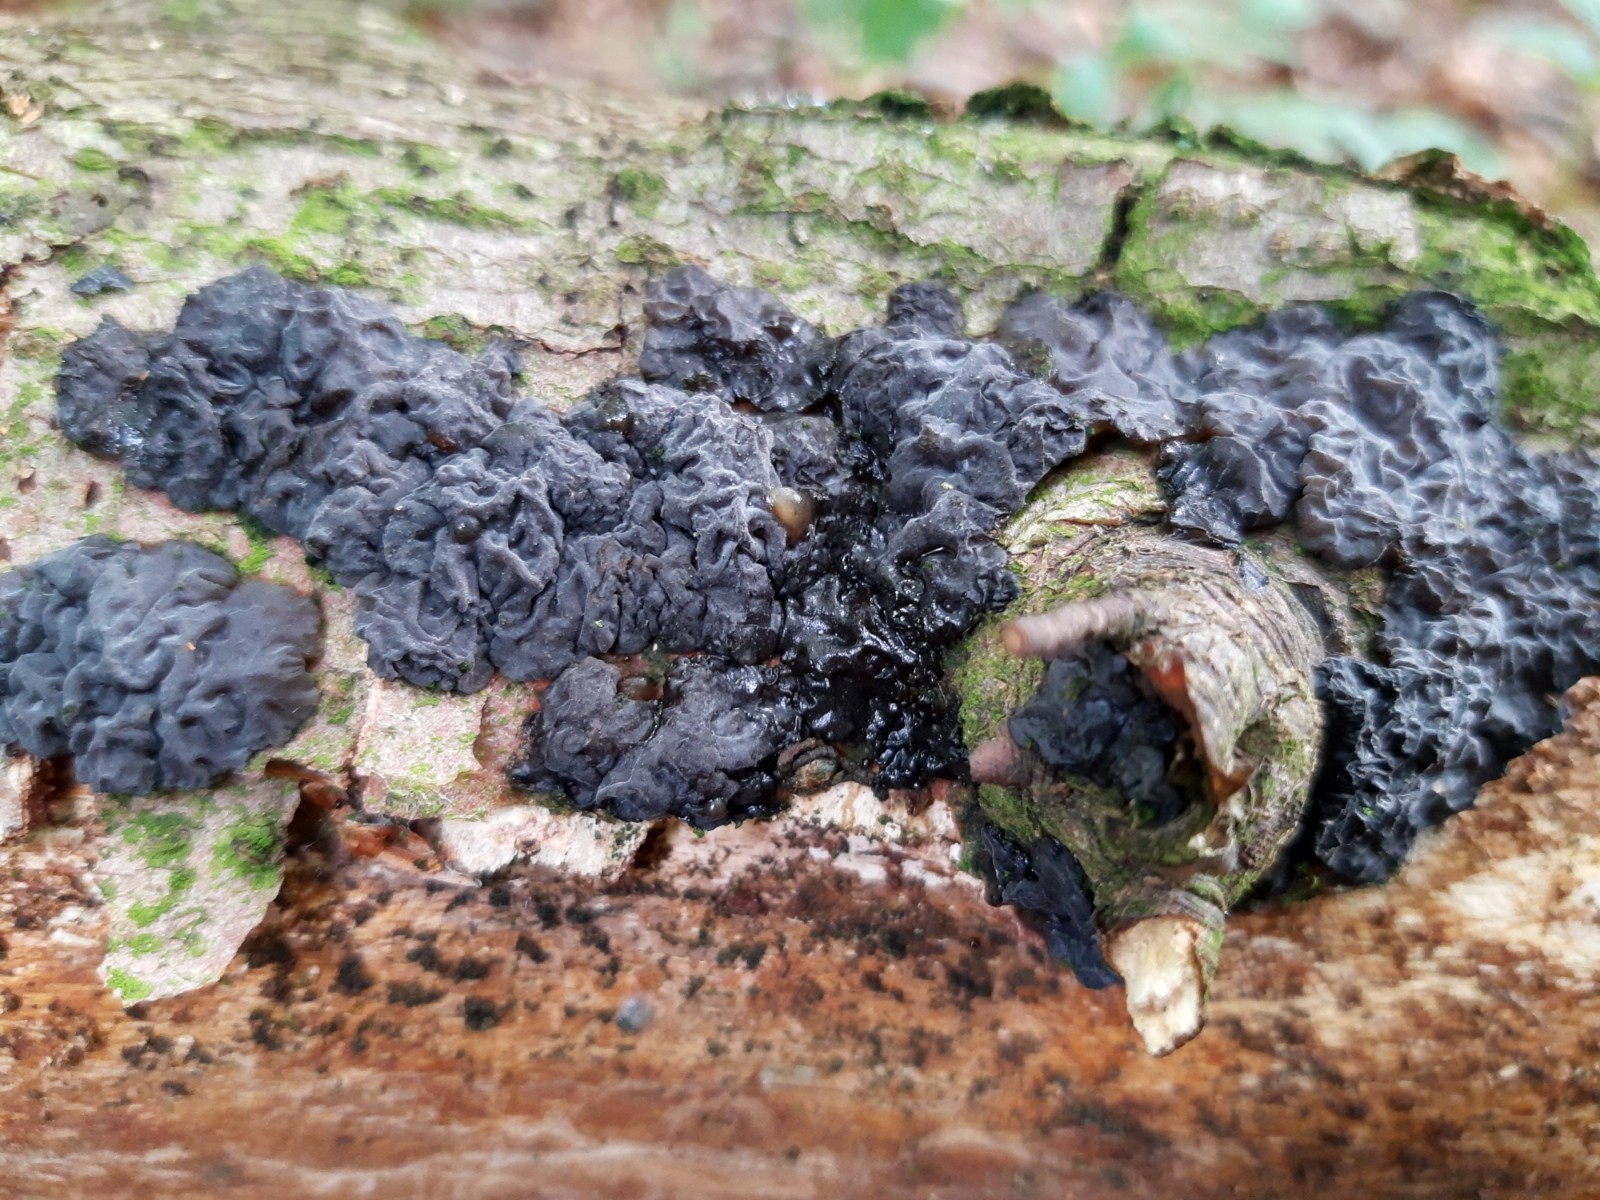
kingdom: Fungi
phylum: Basidiomycota
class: Agaricomycetes
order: Auriculariales
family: Auriculariaceae
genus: Exidia
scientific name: Exidia nigricans
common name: almindelig bævretop
